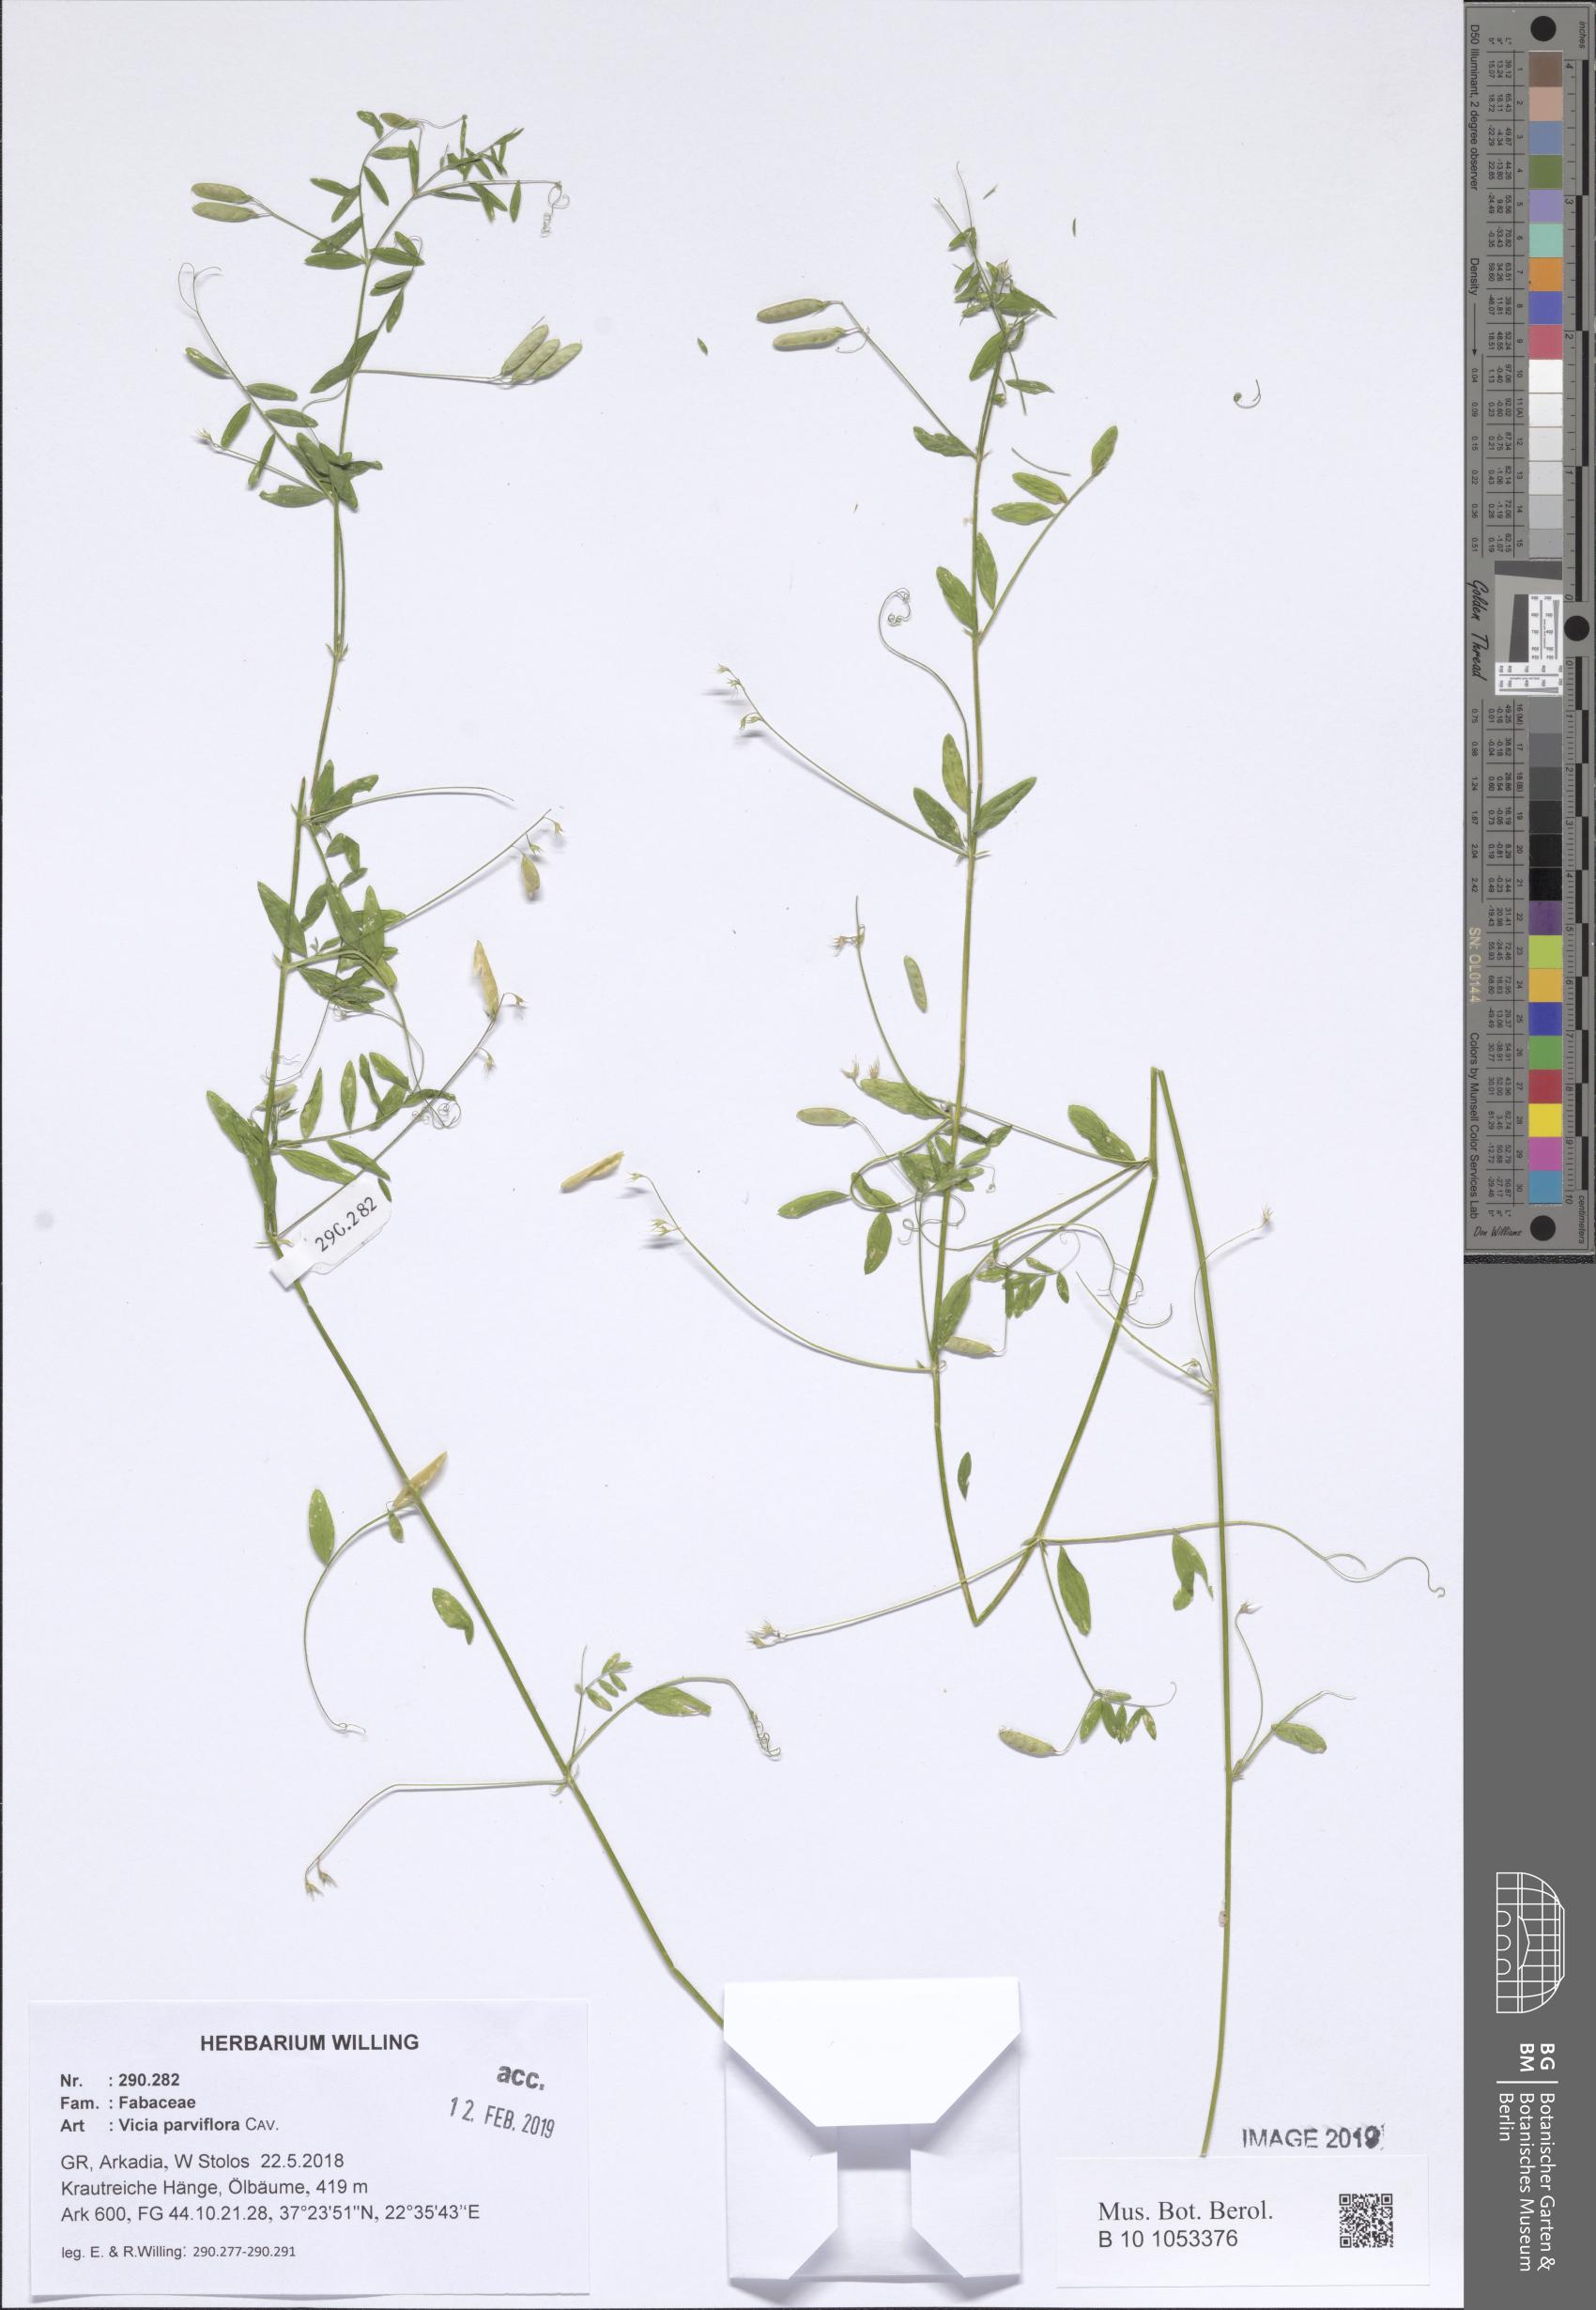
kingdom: Plantae
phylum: Tracheophyta
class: Magnoliopsida
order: Fabales
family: Fabaceae
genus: Vicia
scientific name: Vicia parviflora
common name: Slender tare
